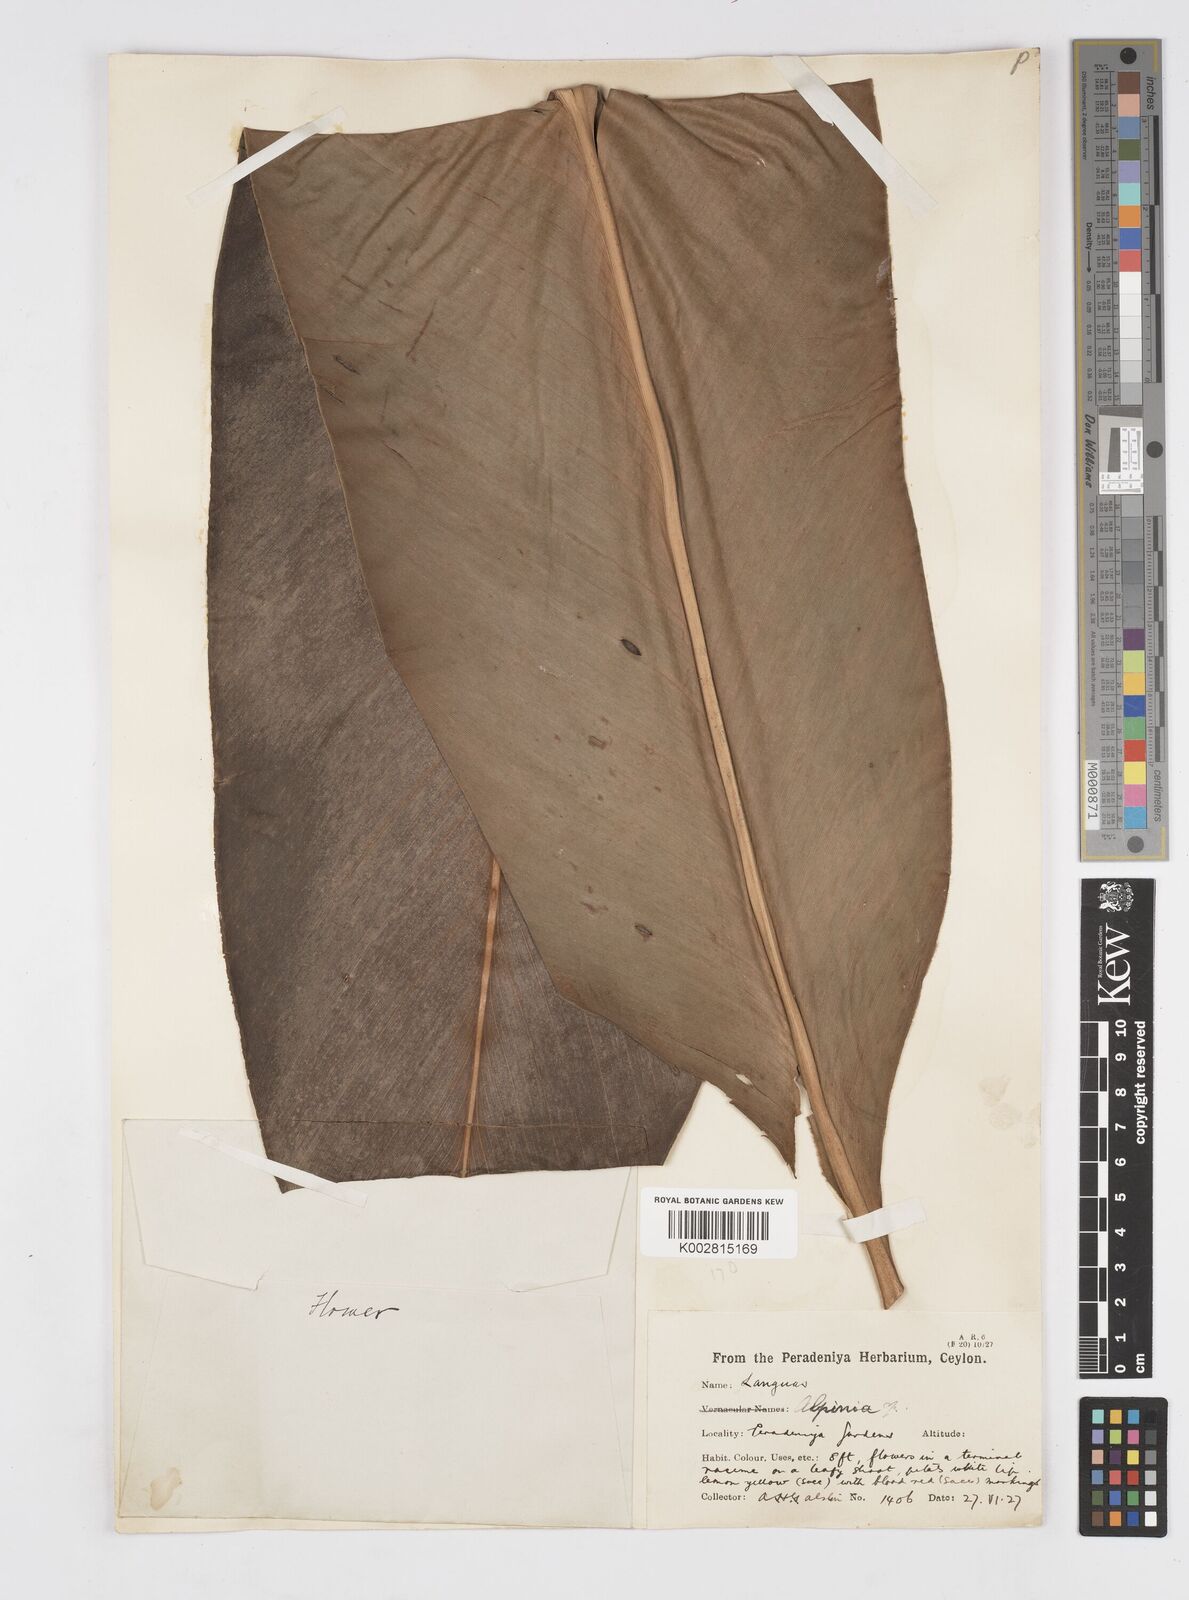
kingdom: Plantae
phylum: Tracheophyta
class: Liliopsida
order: Zingiberales
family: Zingiberaceae
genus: Alpinia
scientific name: Alpinia
